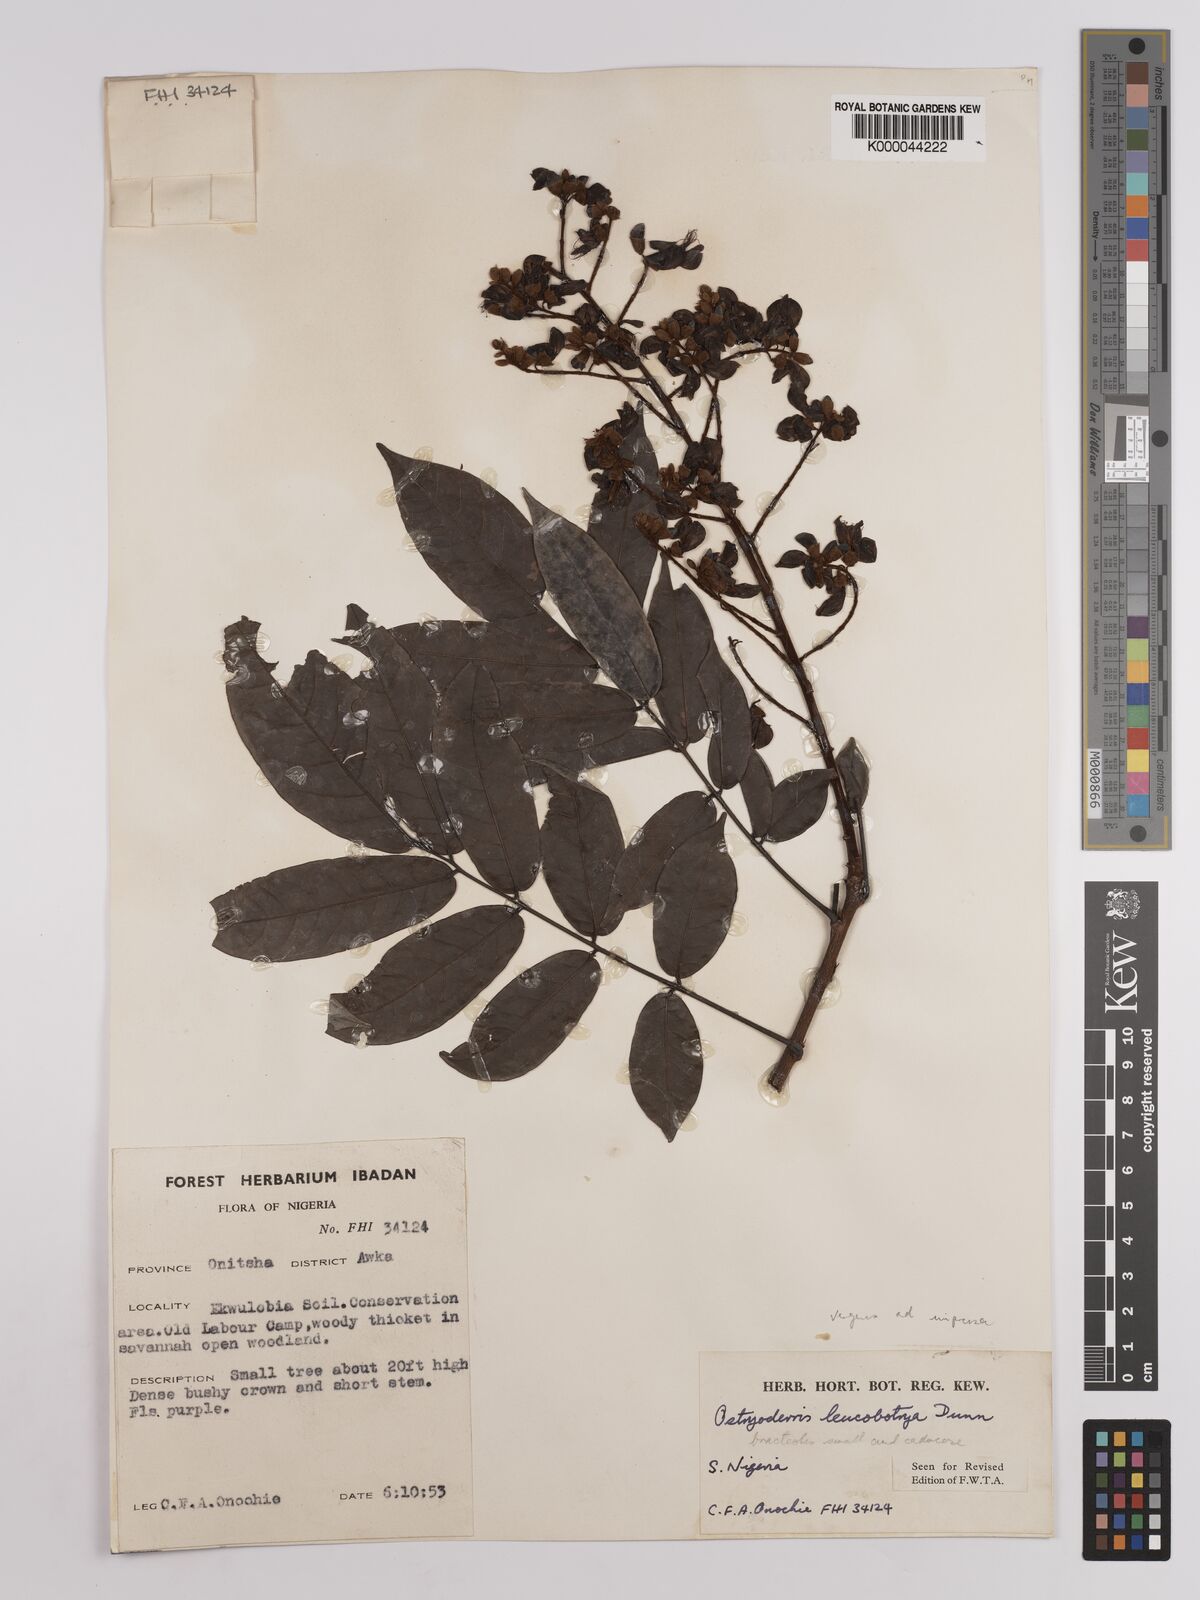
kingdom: Plantae
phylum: Tracheophyta
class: Magnoliopsida
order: Fabales
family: Fabaceae
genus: Aganope
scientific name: Aganope leucobotrya
